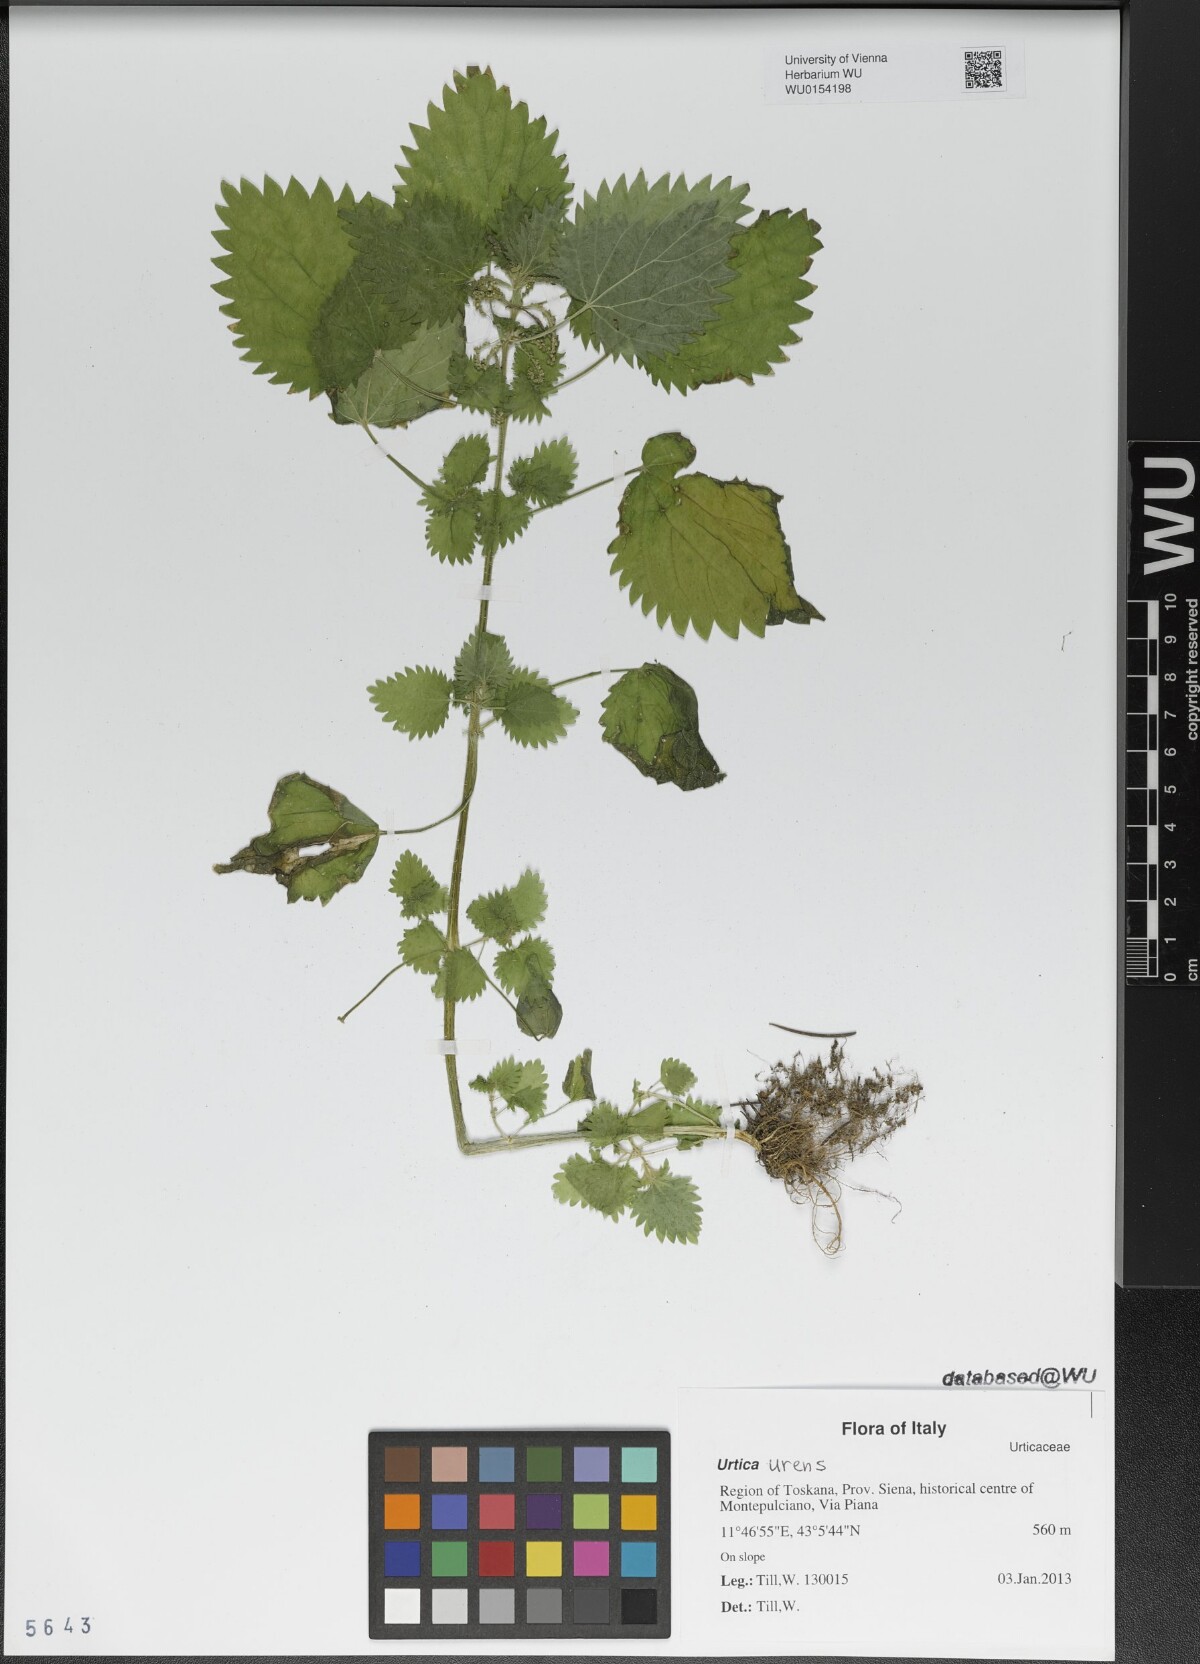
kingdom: Plantae
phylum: Tracheophyta
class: Magnoliopsida
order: Rosales
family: Urticaceae
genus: Urtica
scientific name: Urtica urens
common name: Dwarf nettle
